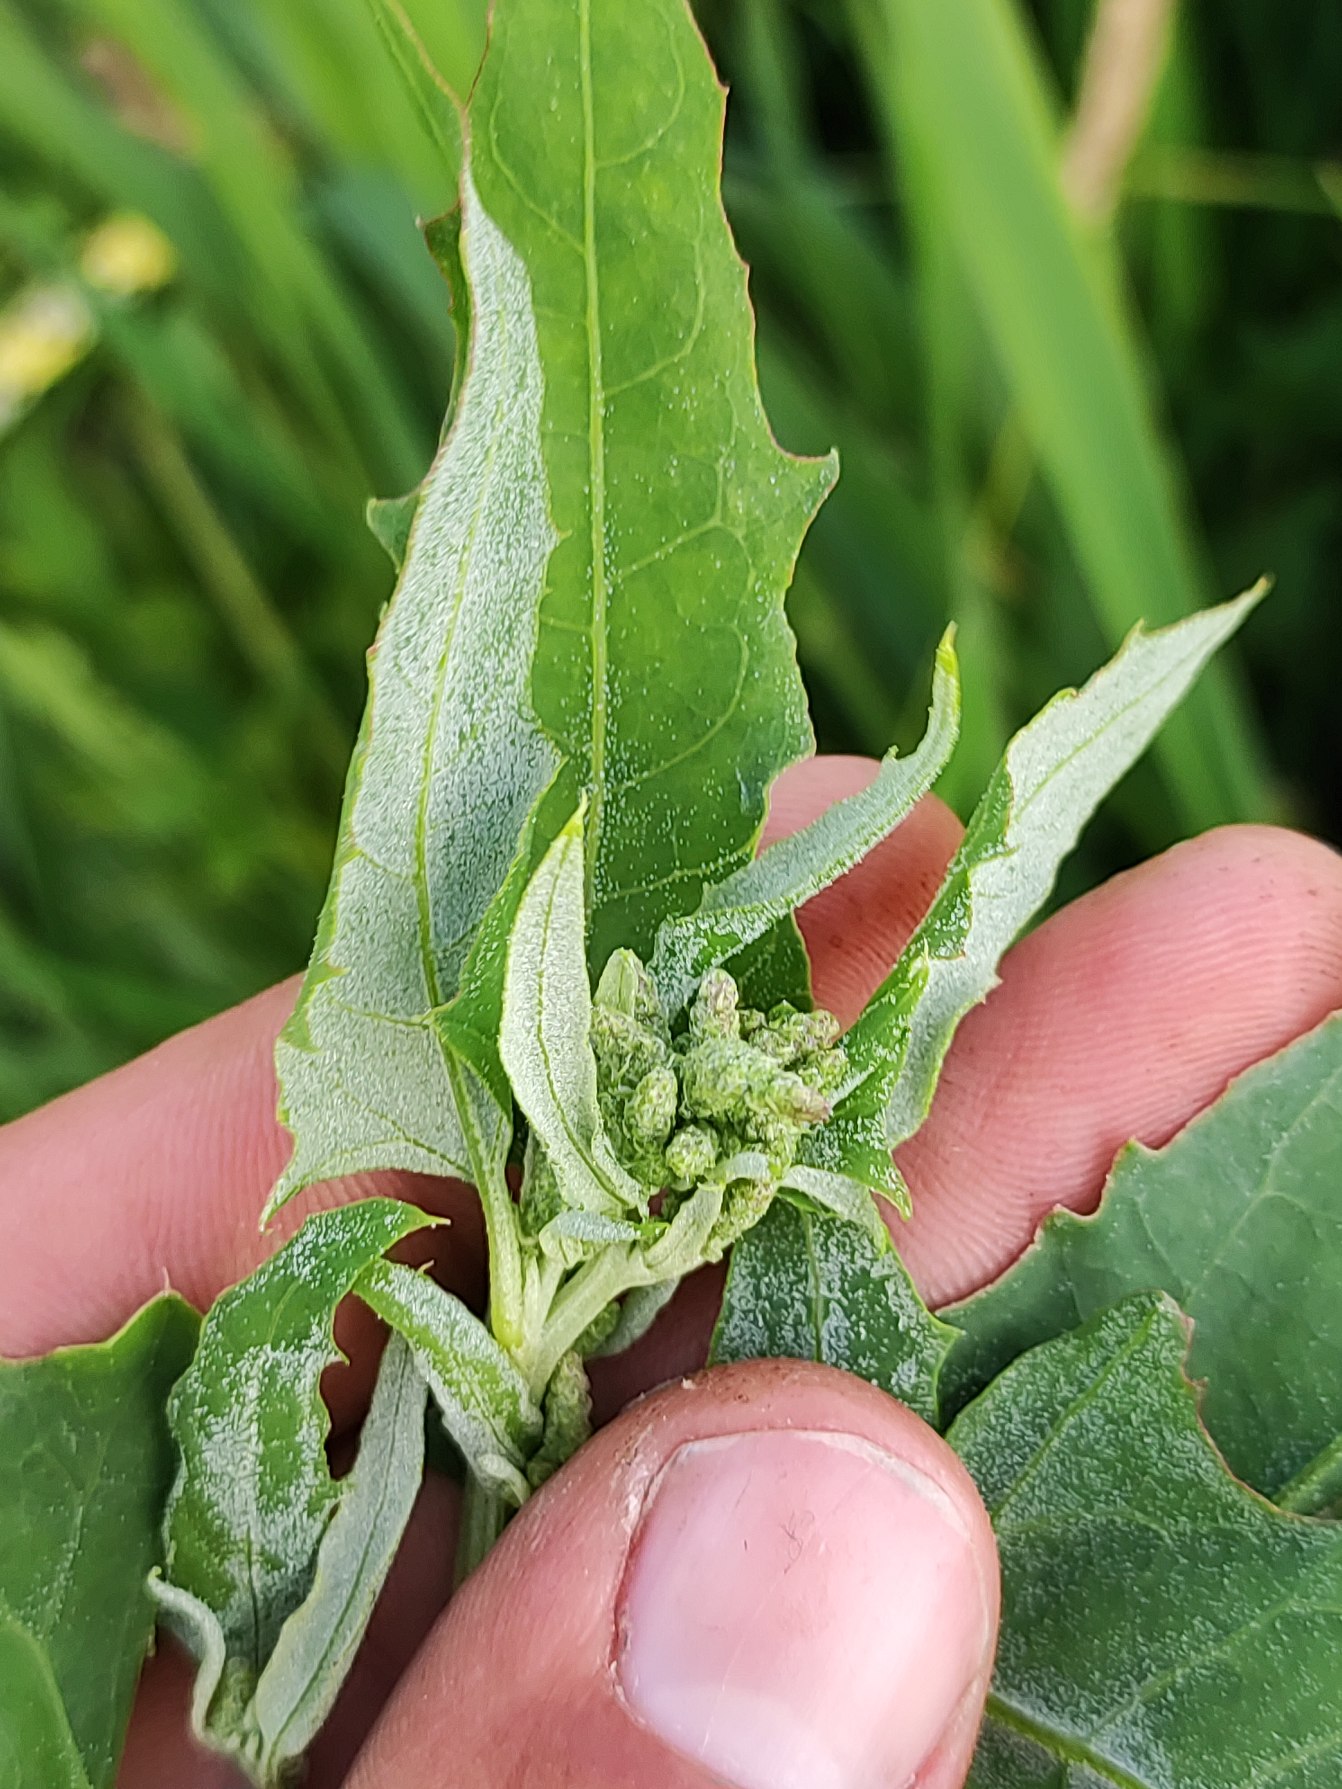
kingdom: Plantae
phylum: Tracheophyta
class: Magnoliopsida
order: Caryophyllales
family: Amaranthaceae
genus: Atriplex
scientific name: Atriplex prostrata
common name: Spyd-mælde
